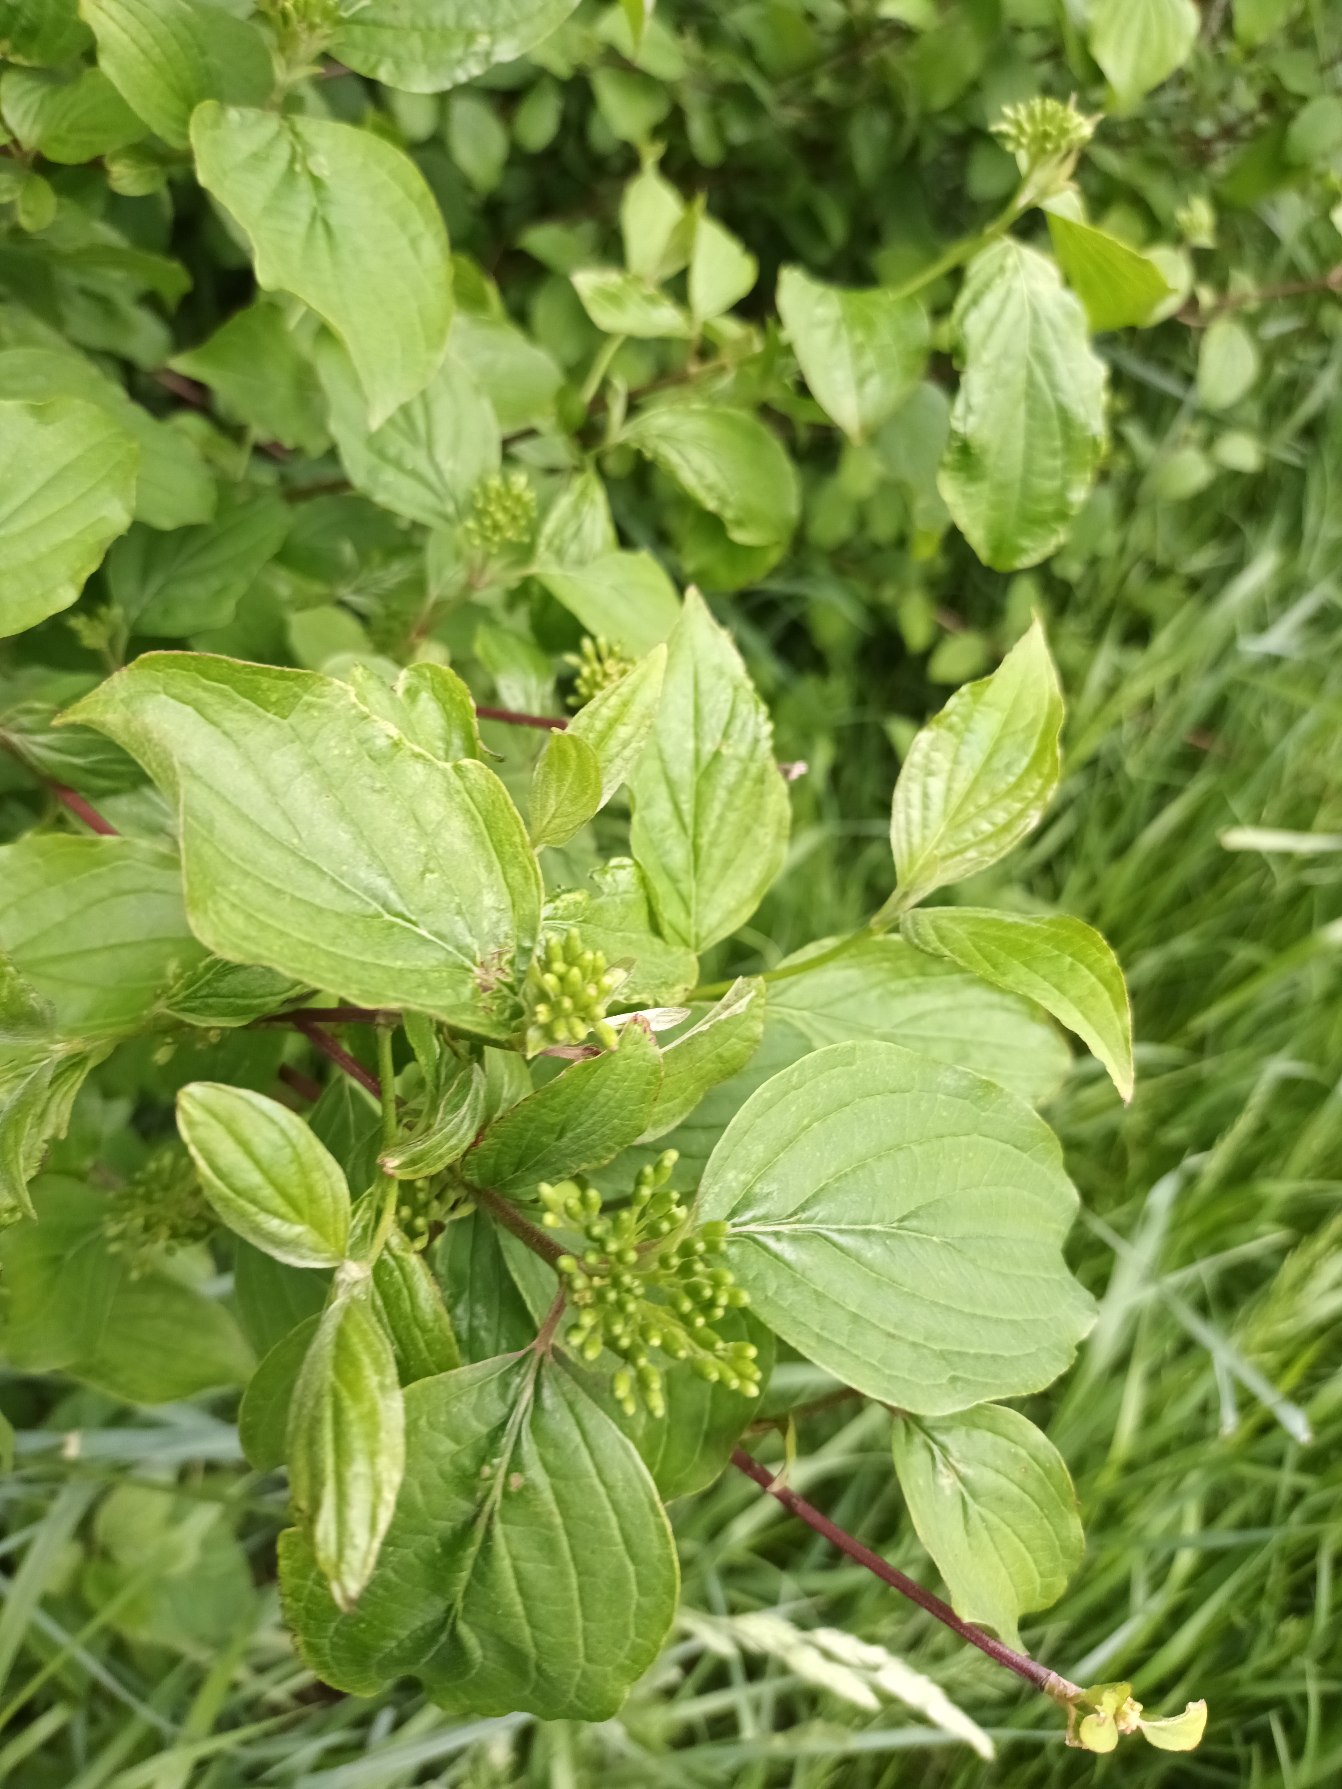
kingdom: Plantae
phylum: Tracheophyta
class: Magnoliopsida
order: Cornales
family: Cornaceae
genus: Cornus
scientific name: Cornus sanguinea
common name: Rød kornel
